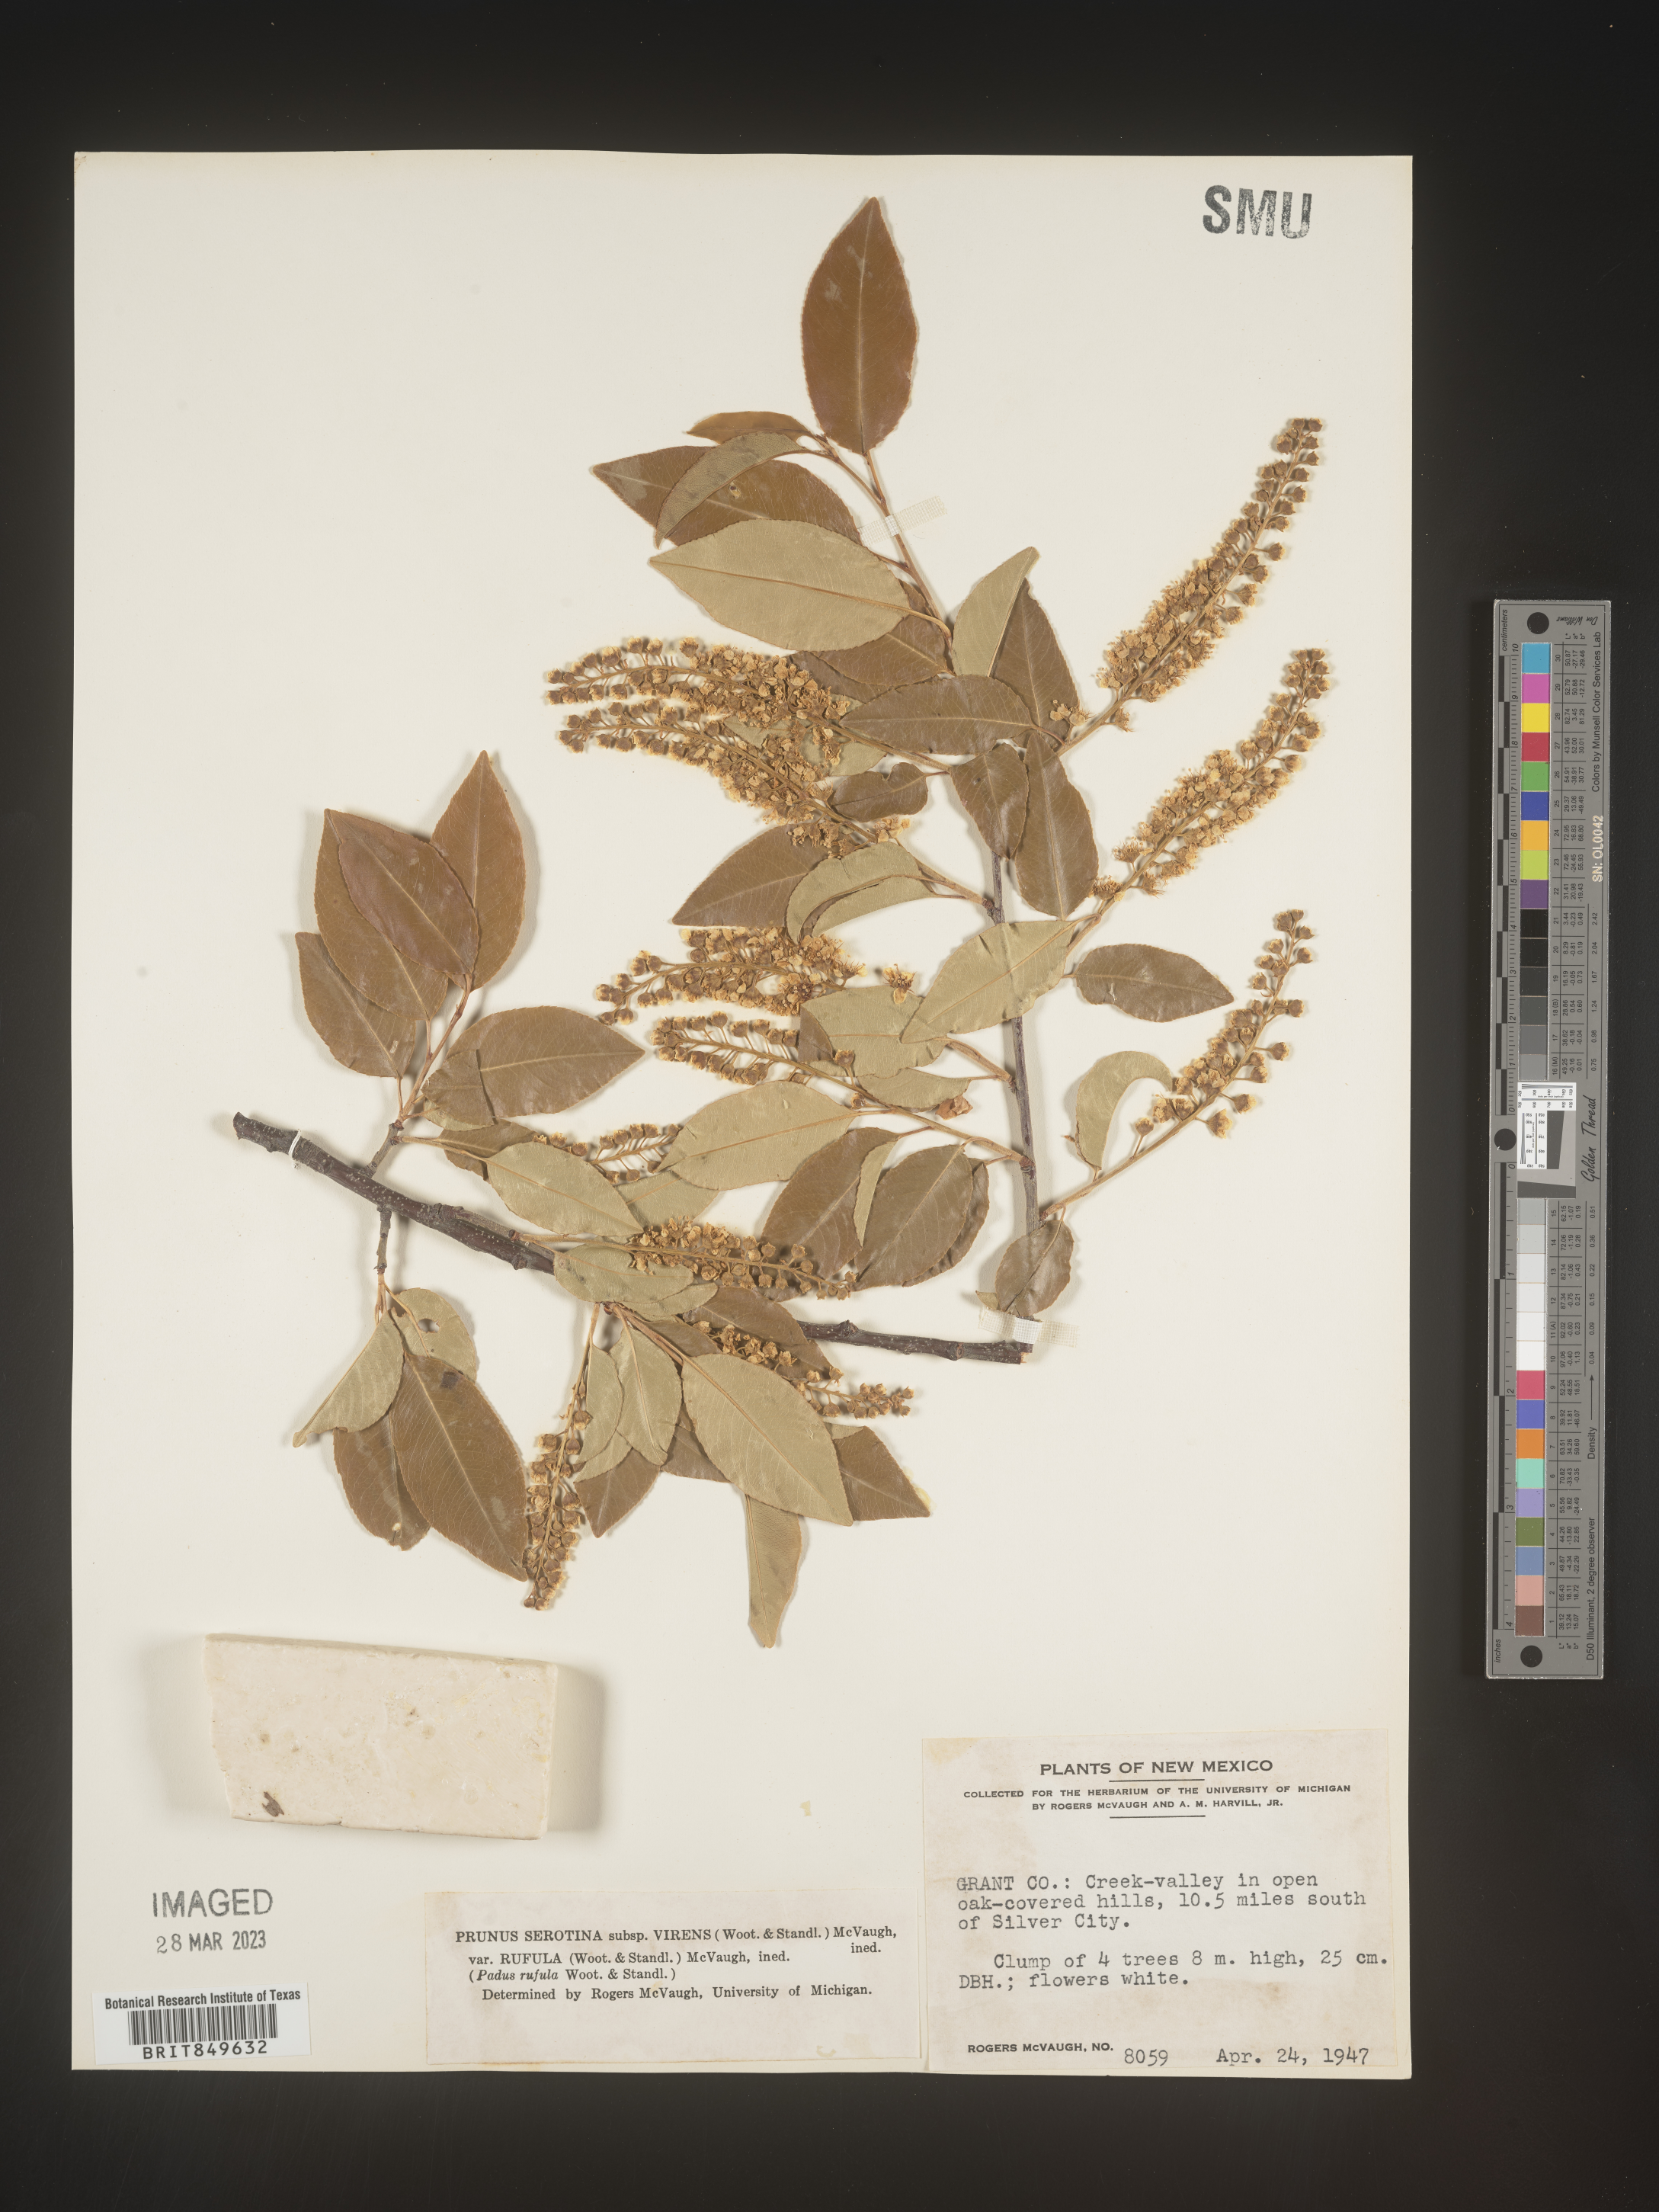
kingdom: Plantae
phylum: Tracheophyta
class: Magnoliopsida
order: Rosales
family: Rosaceae
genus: Prunus
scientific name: Prunus serotina
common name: Black cherry
